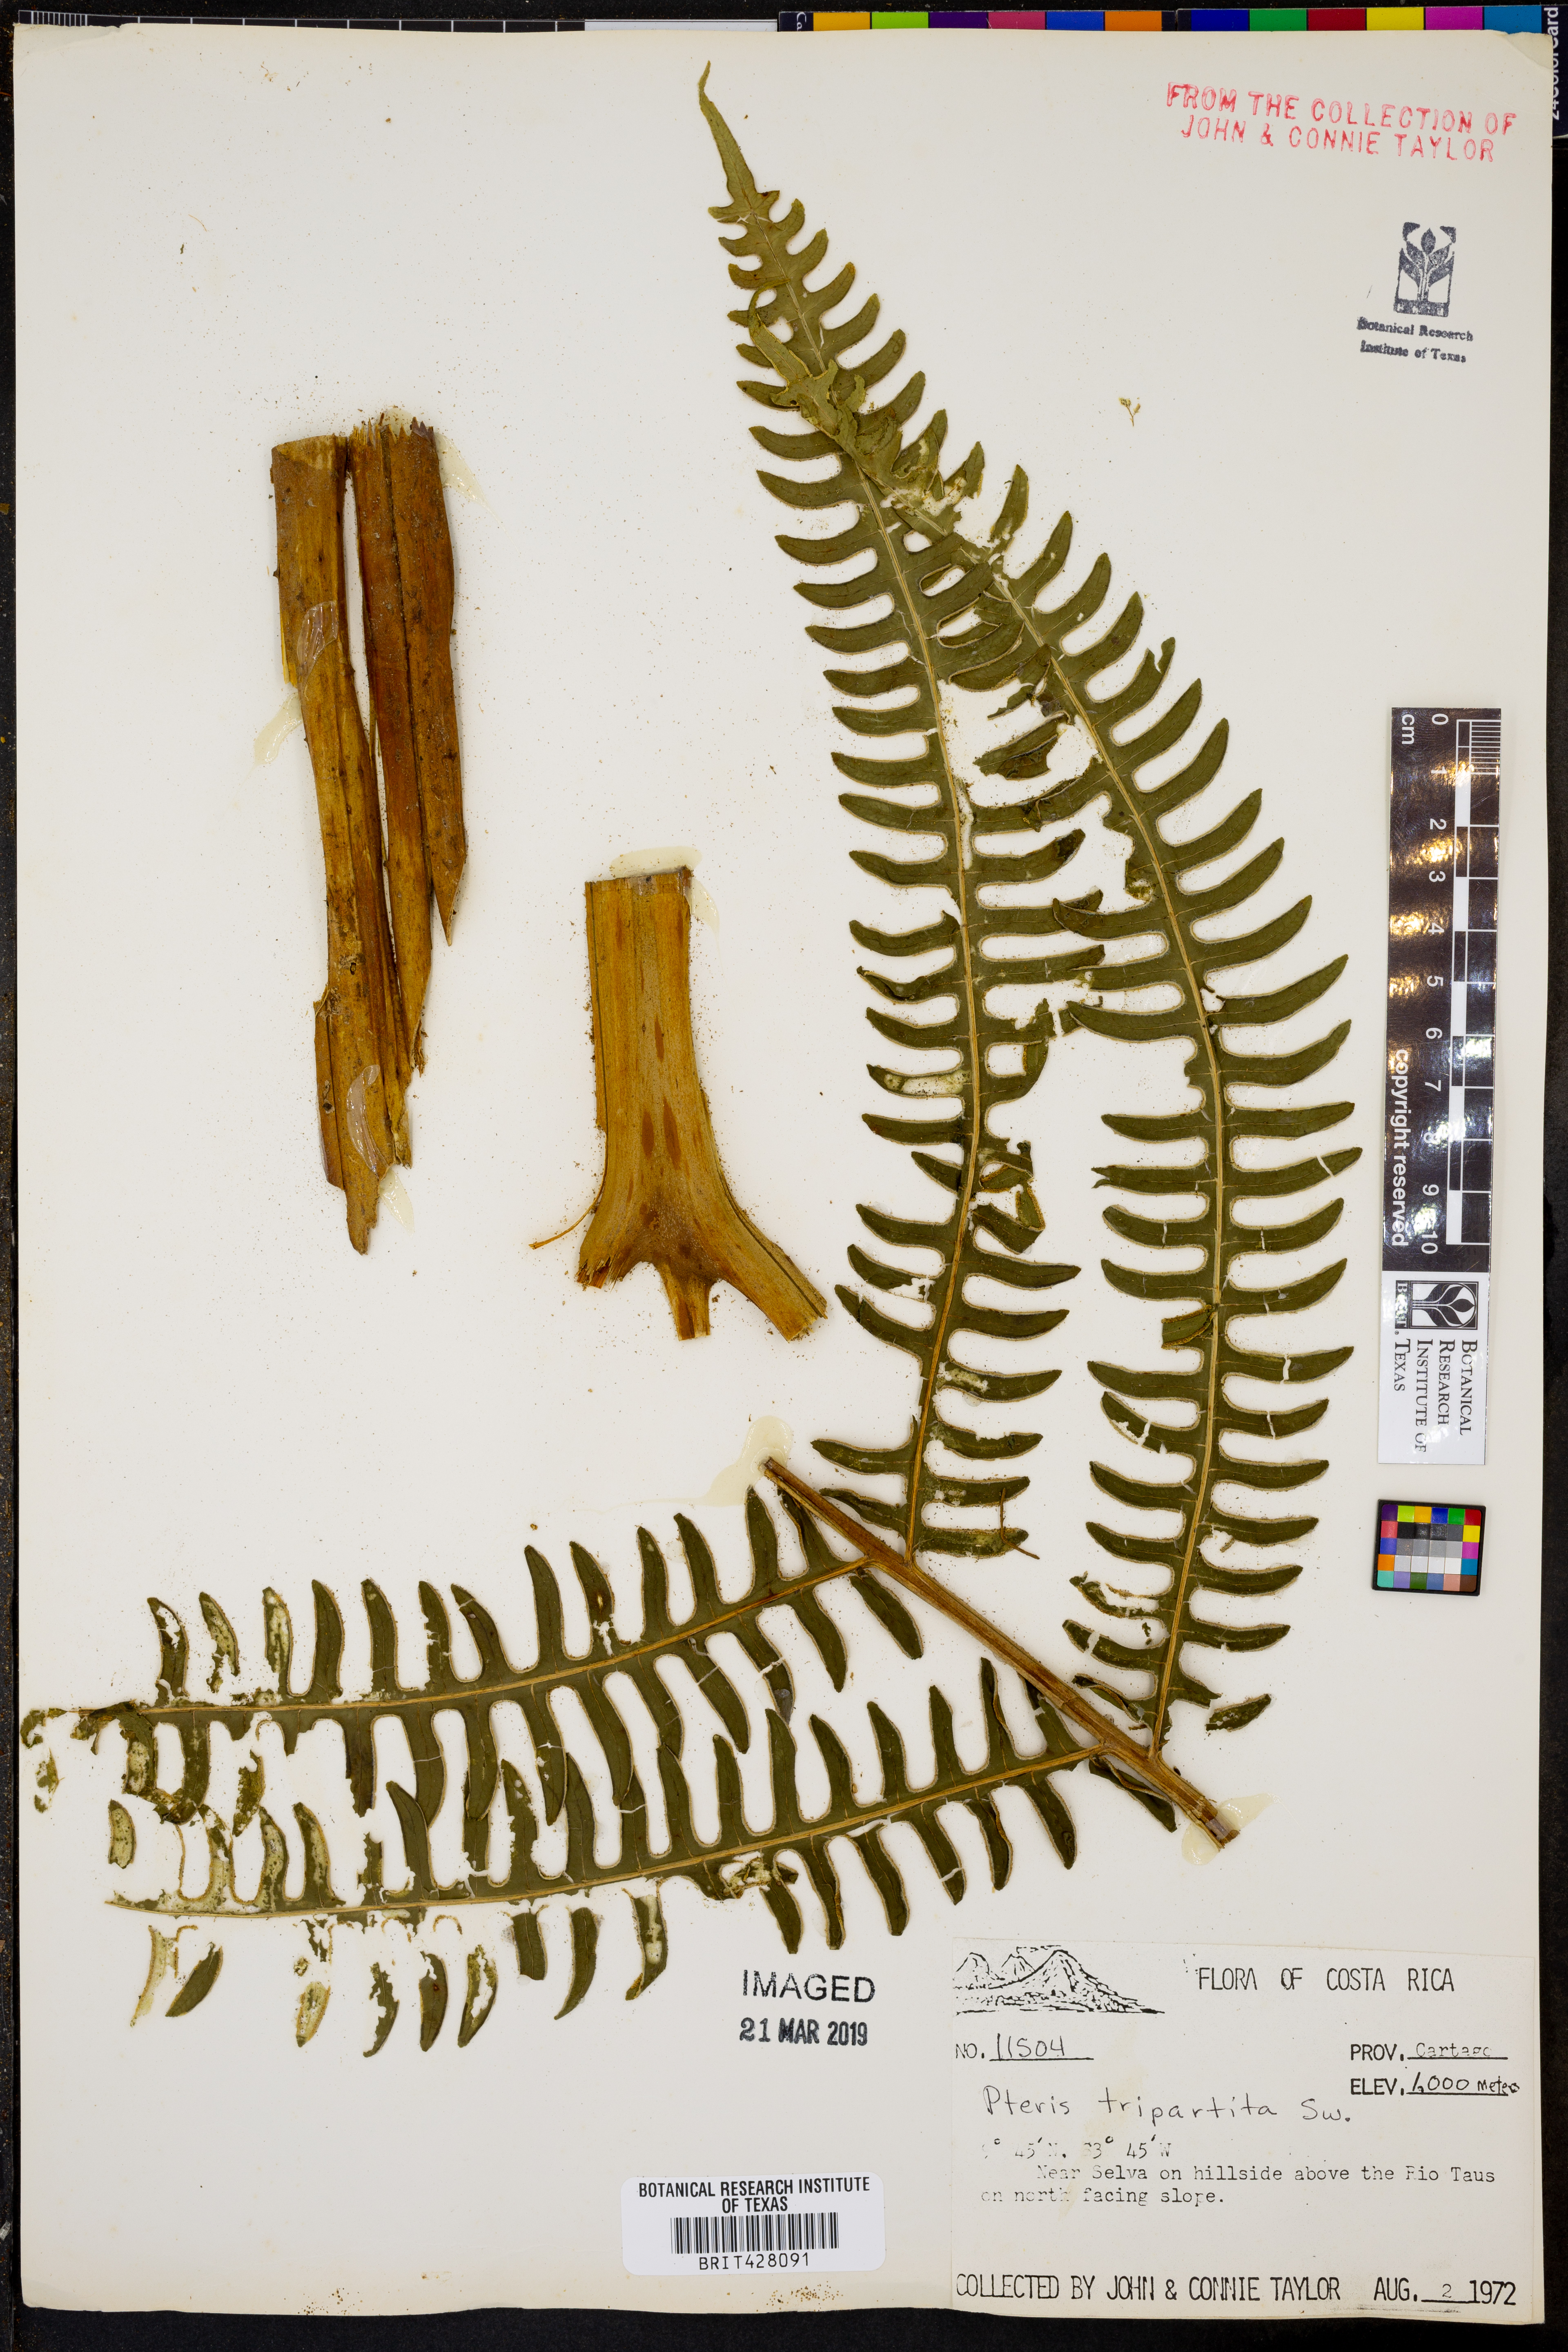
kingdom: Plantae
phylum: Tracheophyta
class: Polypodiopsida
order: Polypodiales
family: Pteridaceae
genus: Pteris
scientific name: Pteris tripartita
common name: Giant brake
